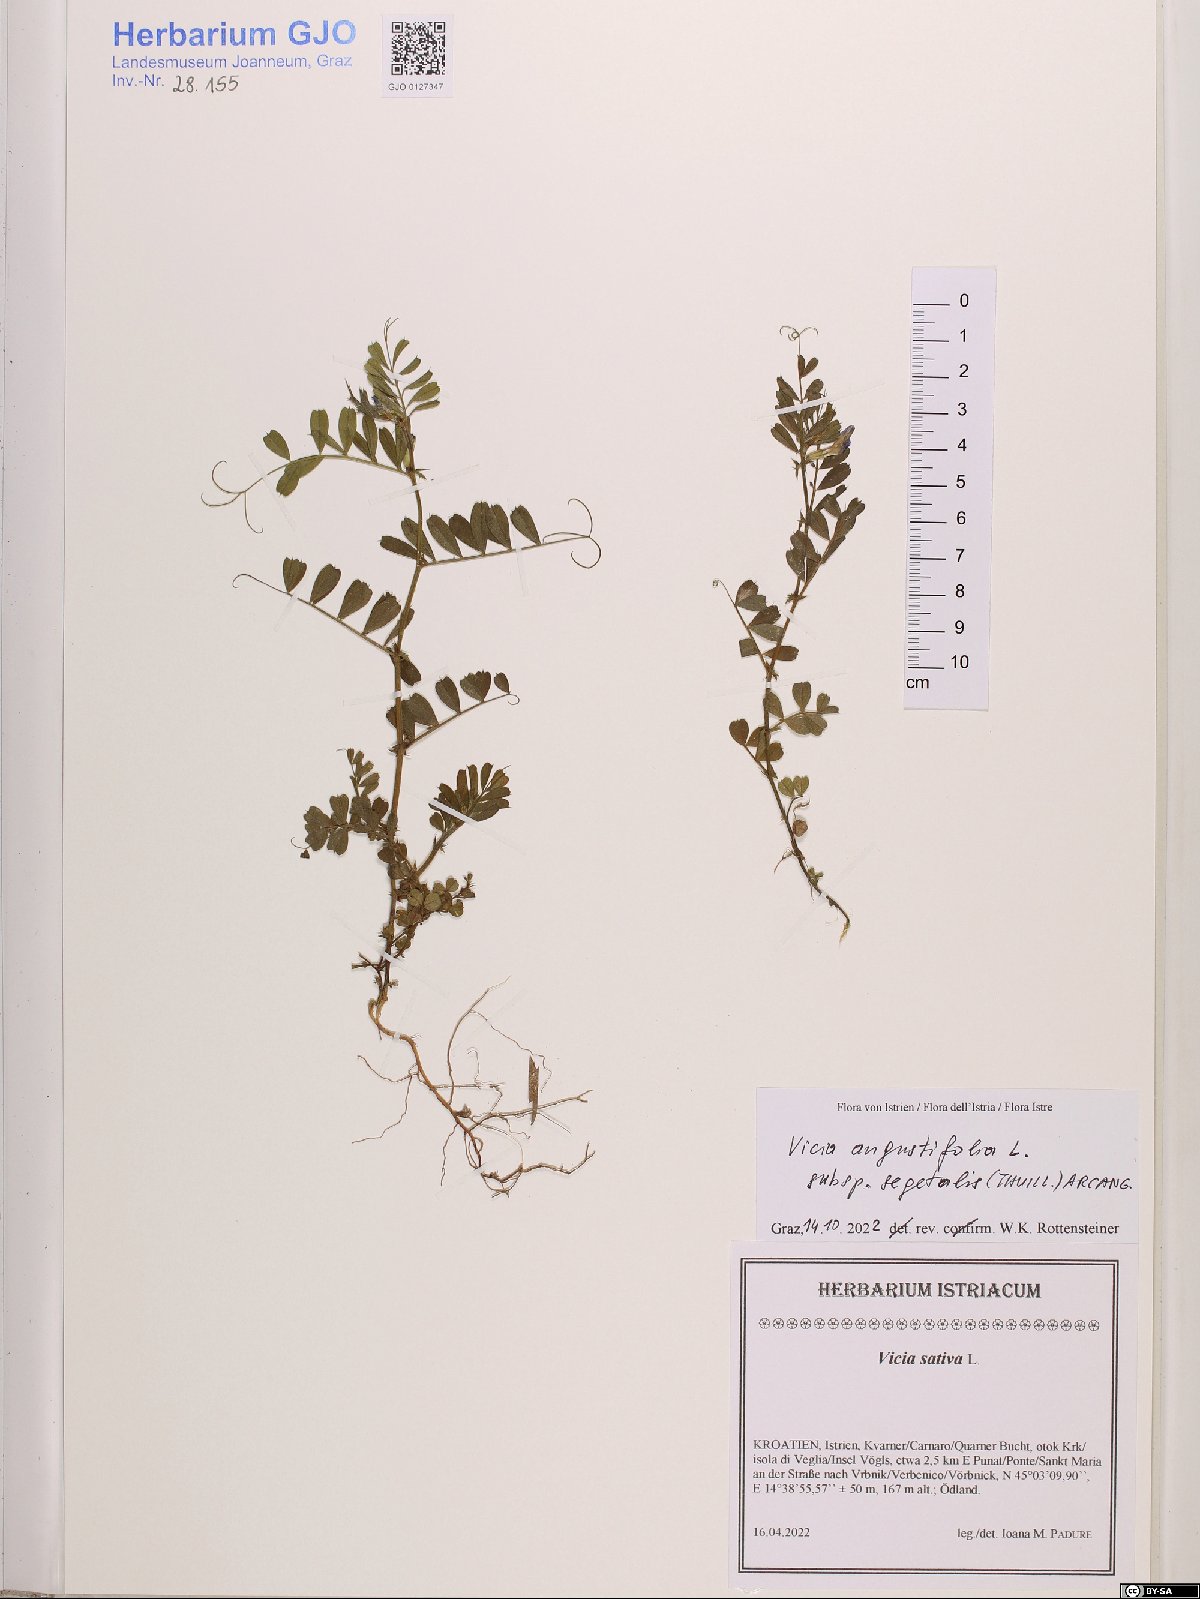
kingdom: Plantae
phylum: Tracheophyta
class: Magnoliopsida
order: Fabales
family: Fabaceae
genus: Vicia
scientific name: Vicia sativa
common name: Garden vetch
